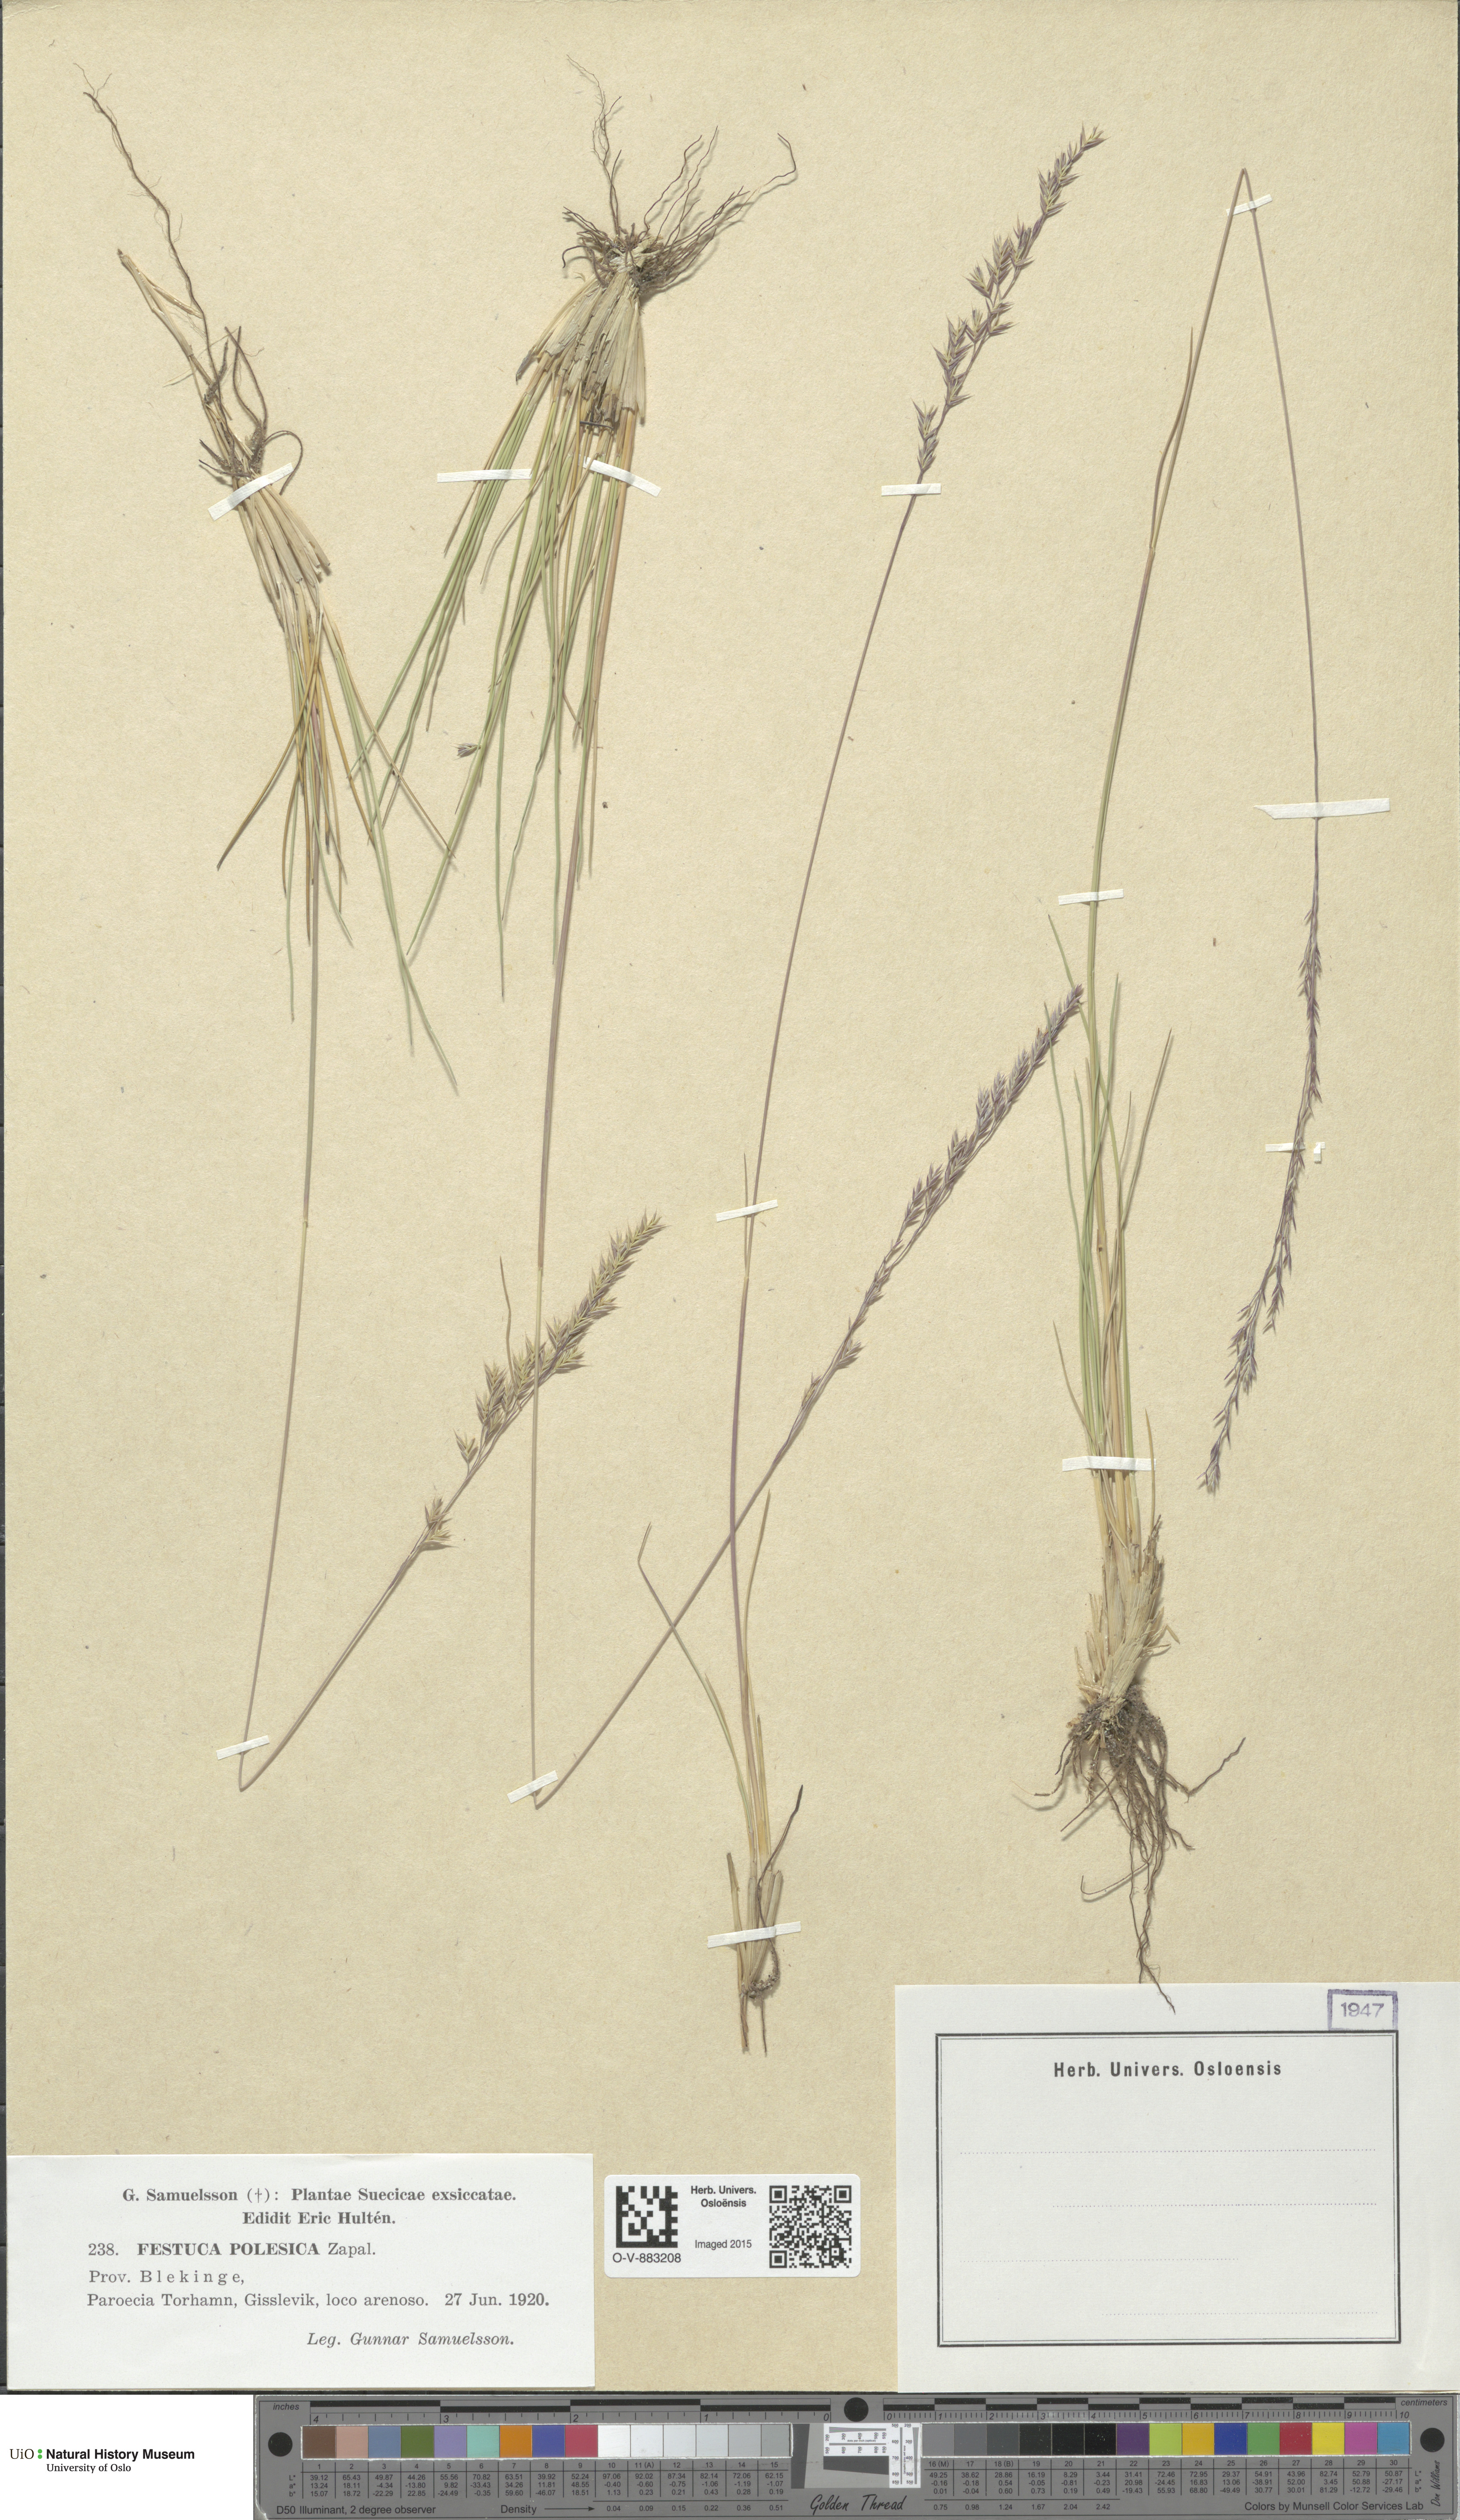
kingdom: Plantae
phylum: Tracheophyta
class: Liliopsida
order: Poales
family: Poaceae
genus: Festuca
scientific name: Festuca beckeri
